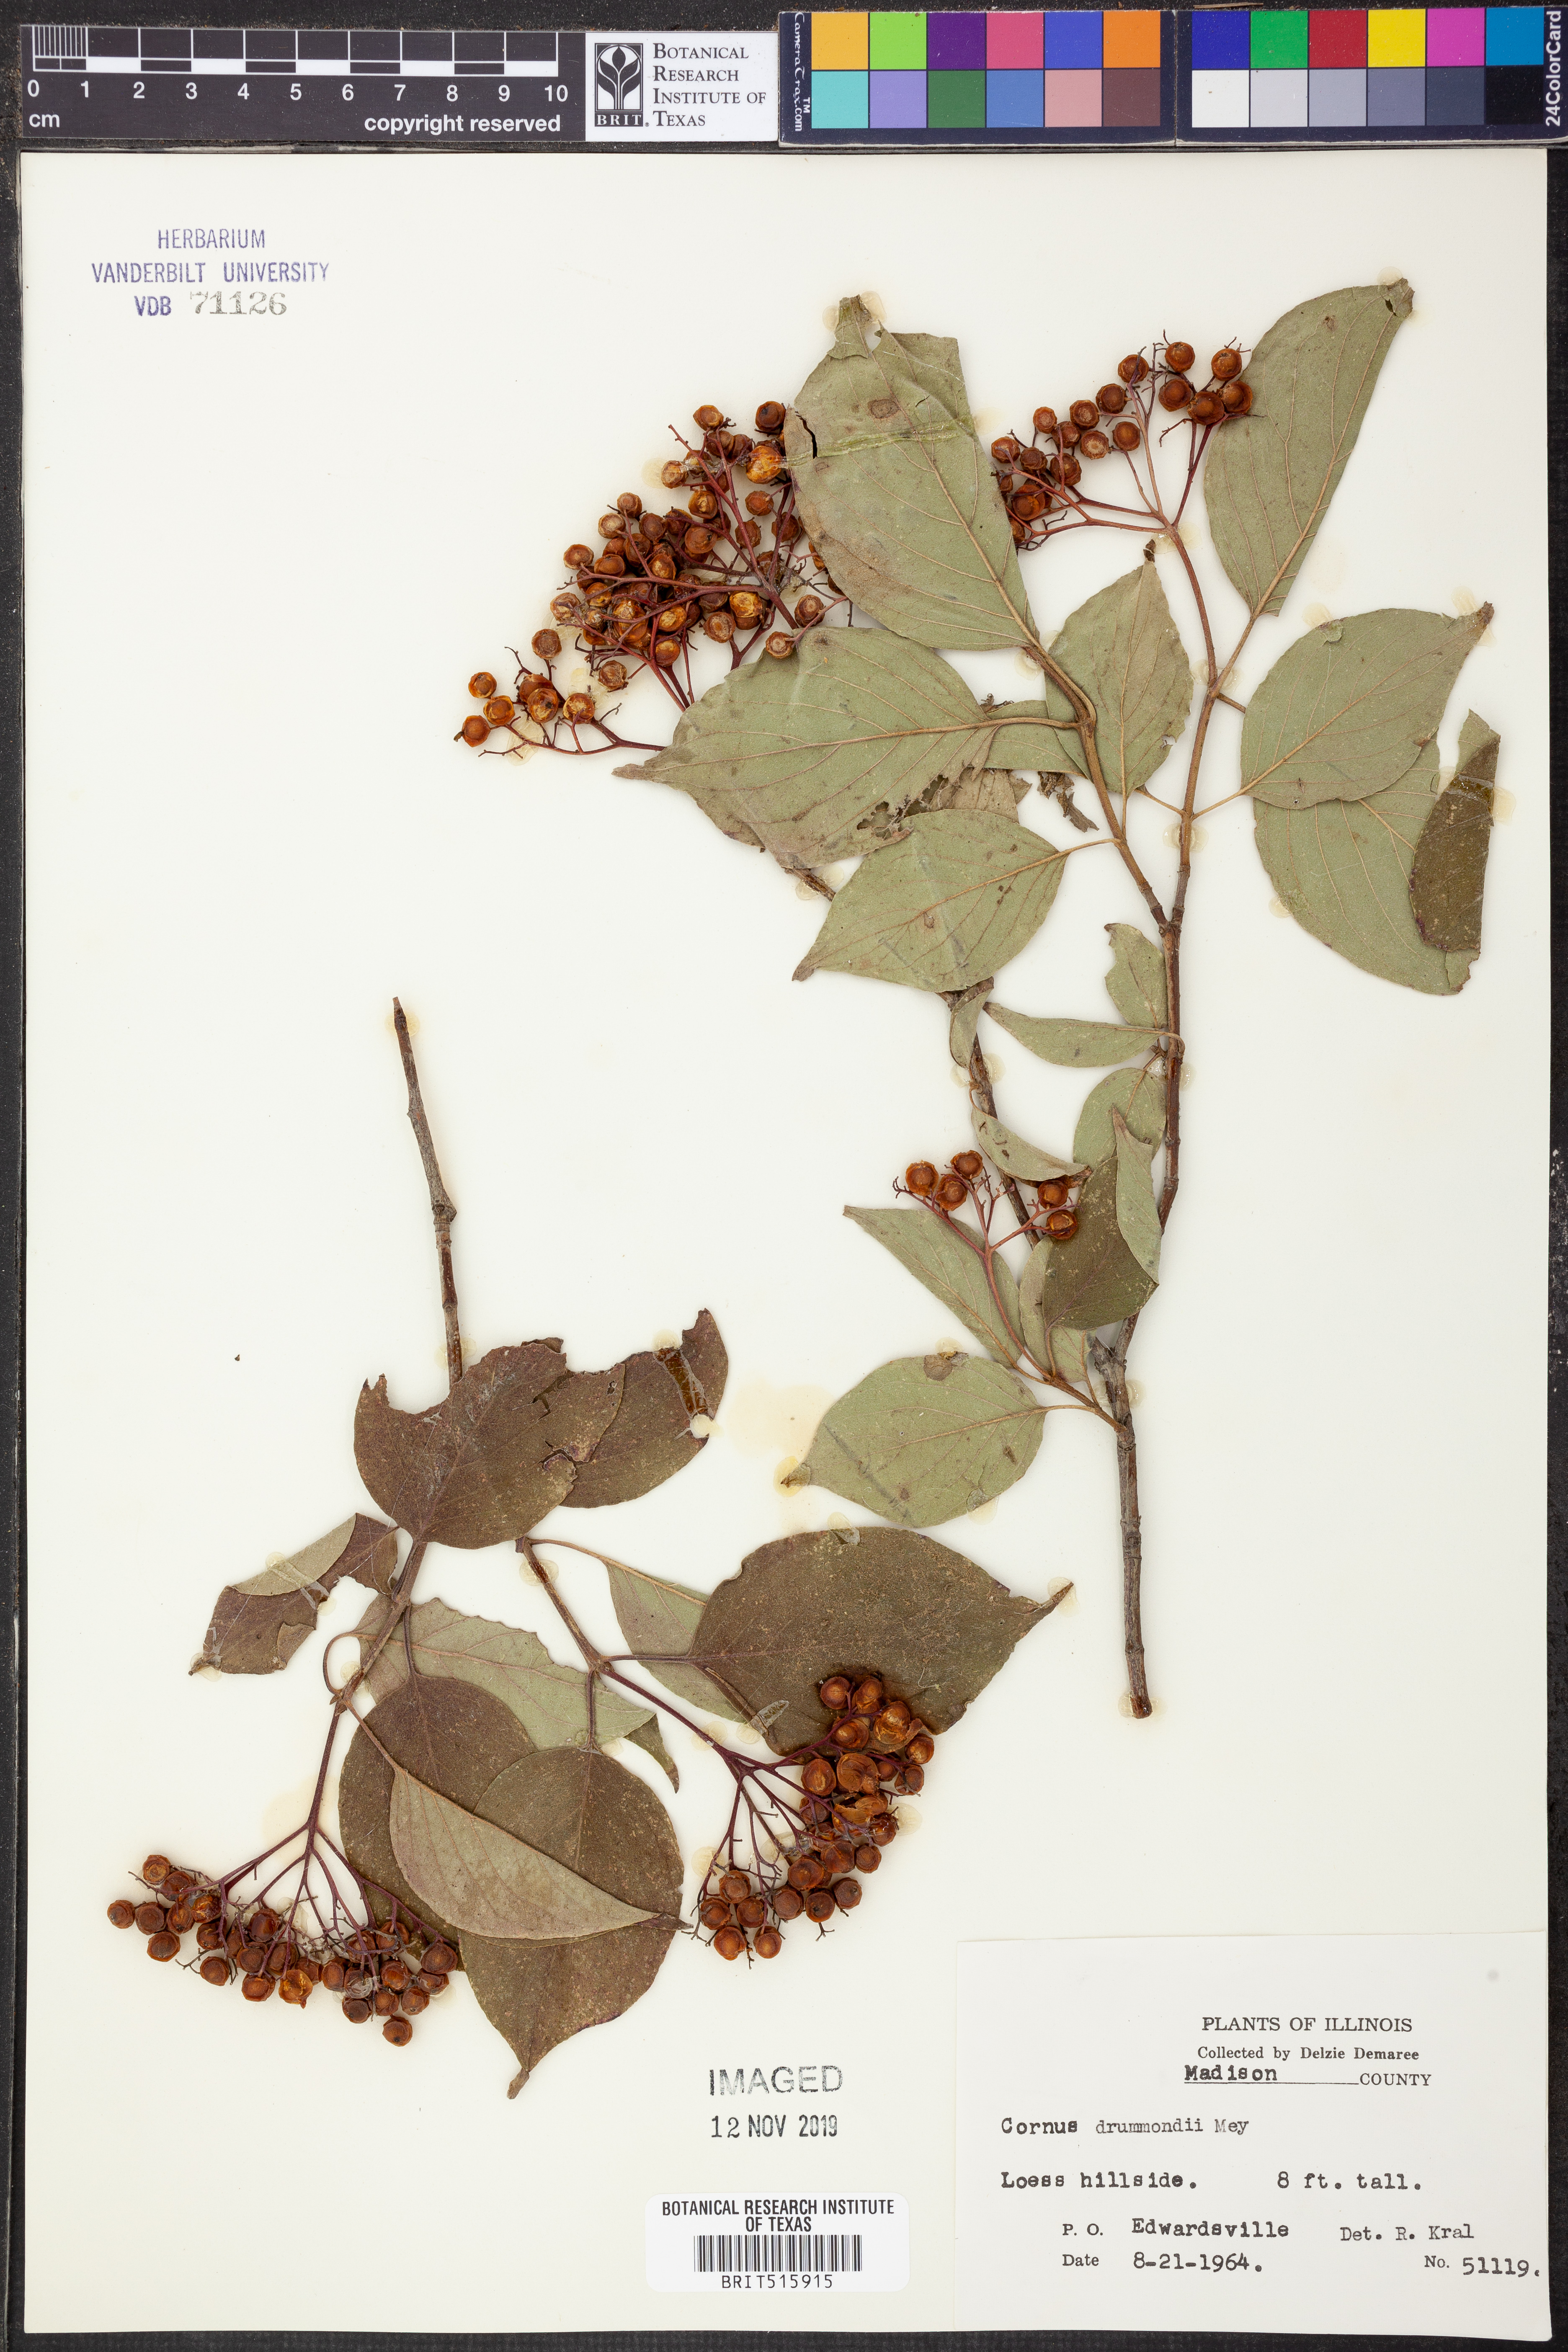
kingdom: Plantae
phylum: Tracheophyta
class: Magnoliopsida
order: Cornales
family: Cornaceae
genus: Cornus
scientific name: Cornus drummondii
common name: Rough-leaf dogwood
